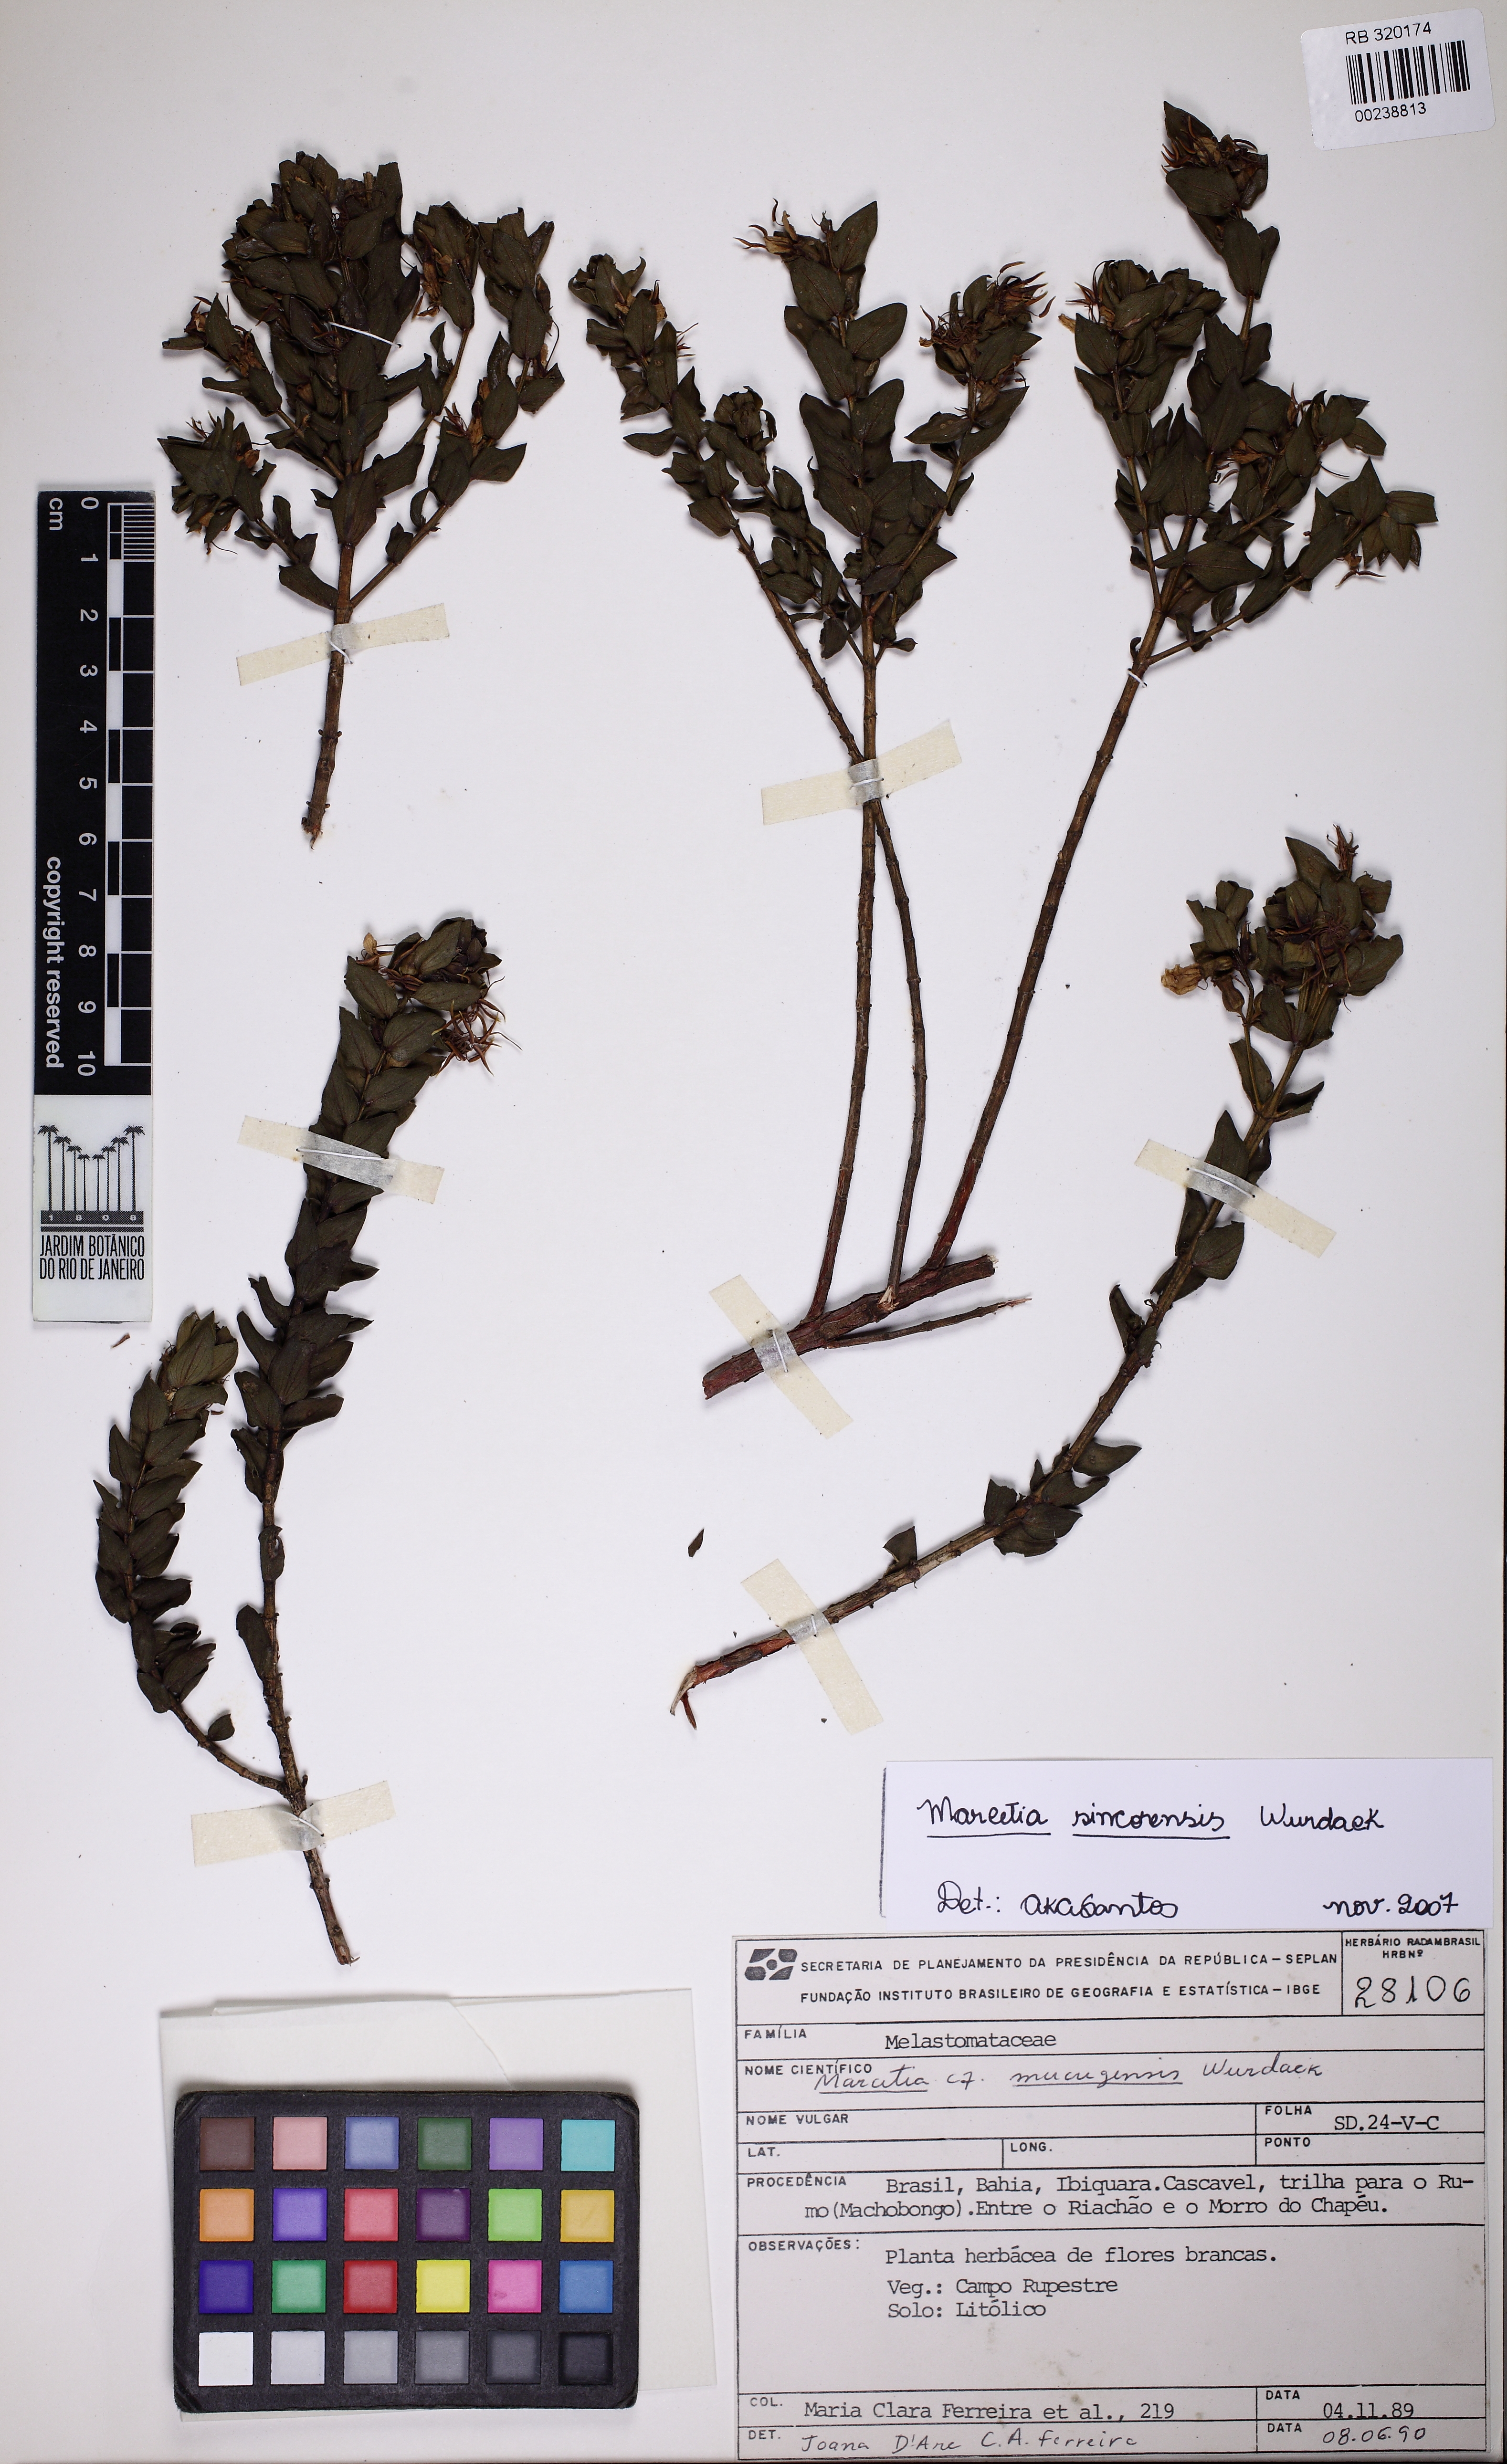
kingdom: Plantae
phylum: Tracheophyta
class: Magnoliopsida
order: Myrtales
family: Melastomataceae
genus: Marcetia
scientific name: Marcetia sincorensis
